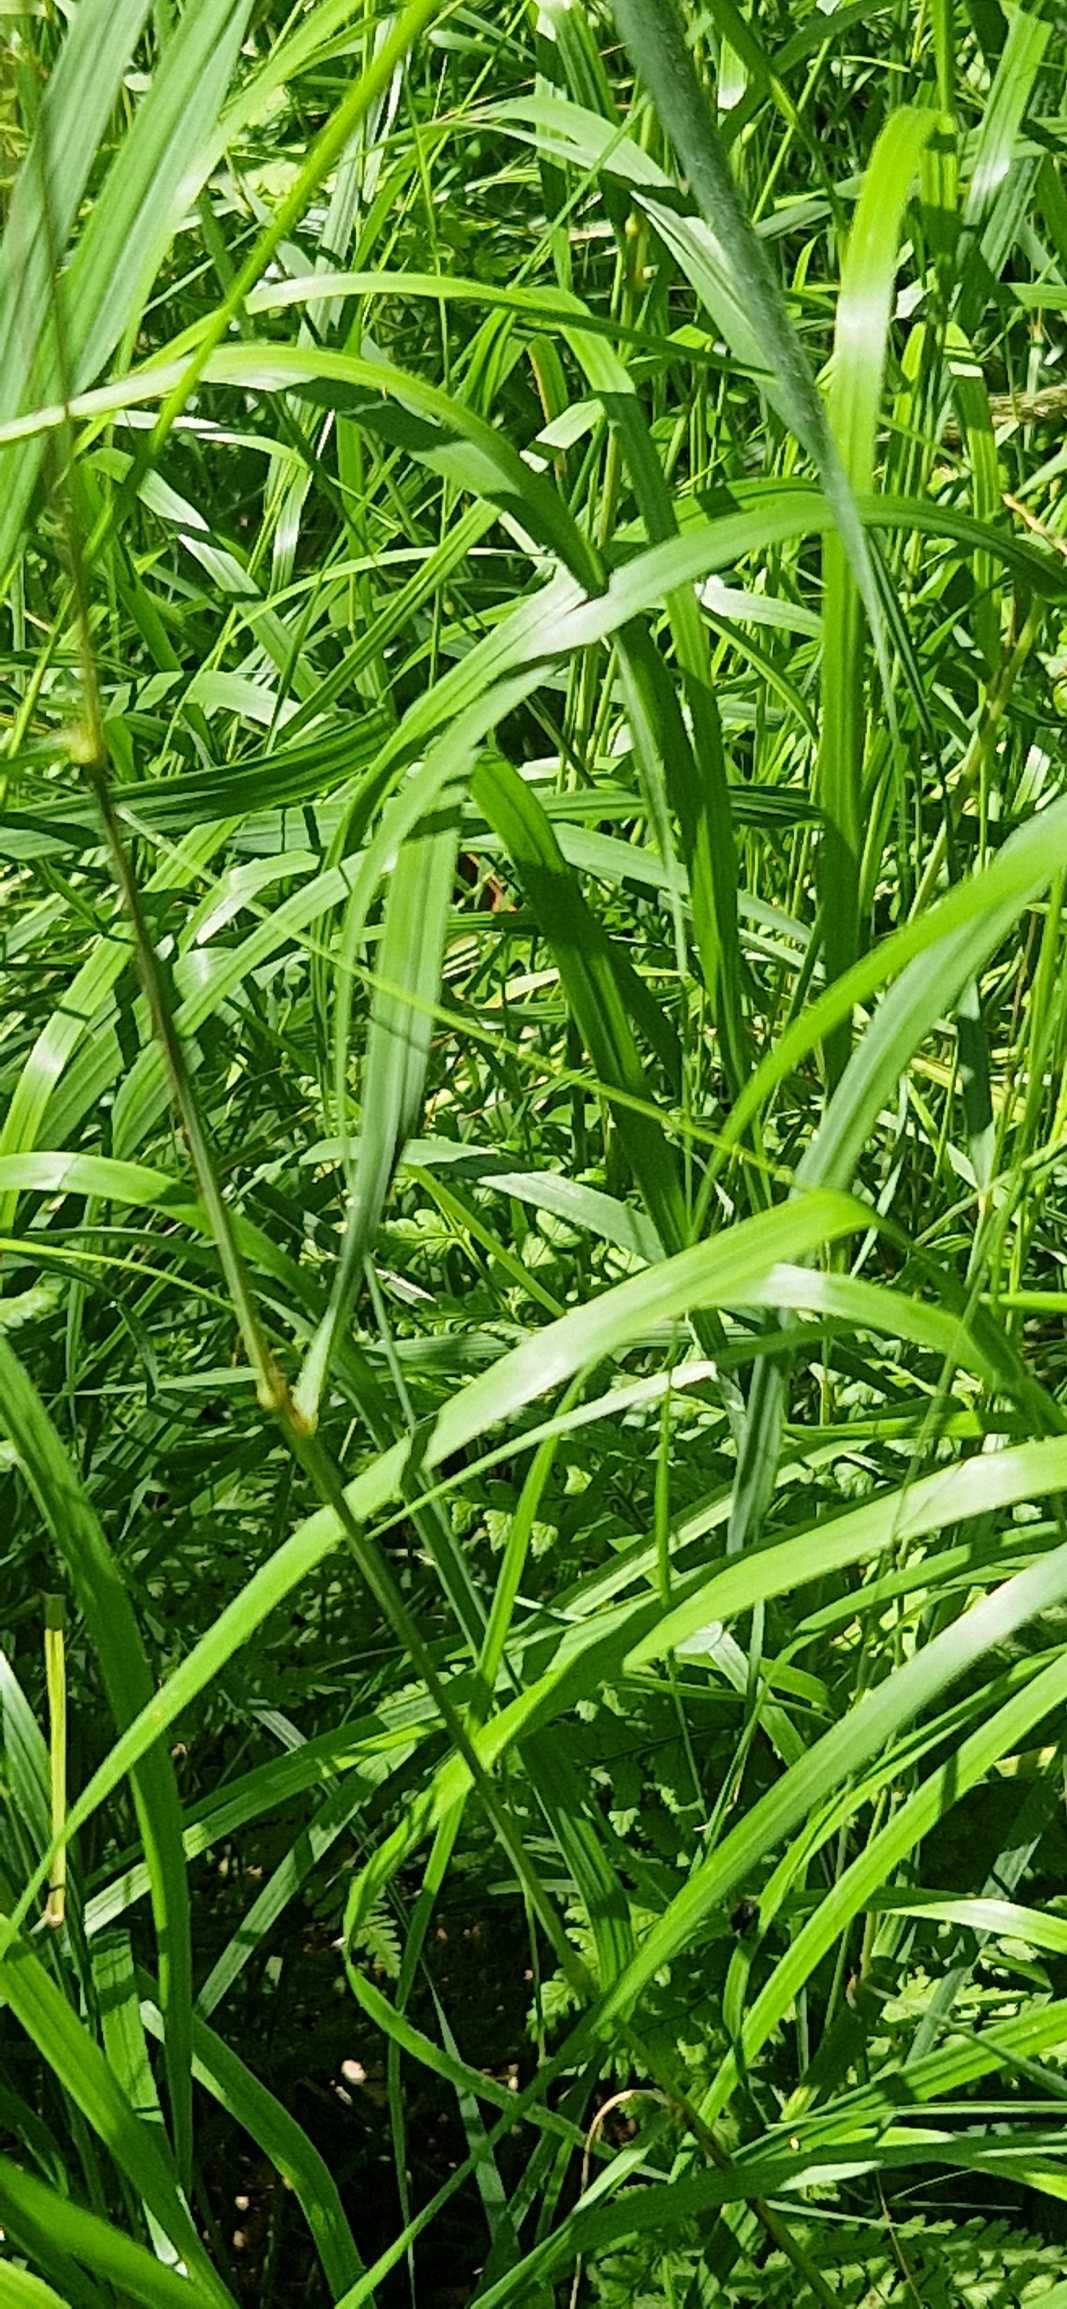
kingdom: Plantae
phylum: Tracheophyta
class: Liliopsida
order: Poales
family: Poaceae
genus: Calamagrostis
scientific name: Calamagrostis canescens
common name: Eng-rørhvene
